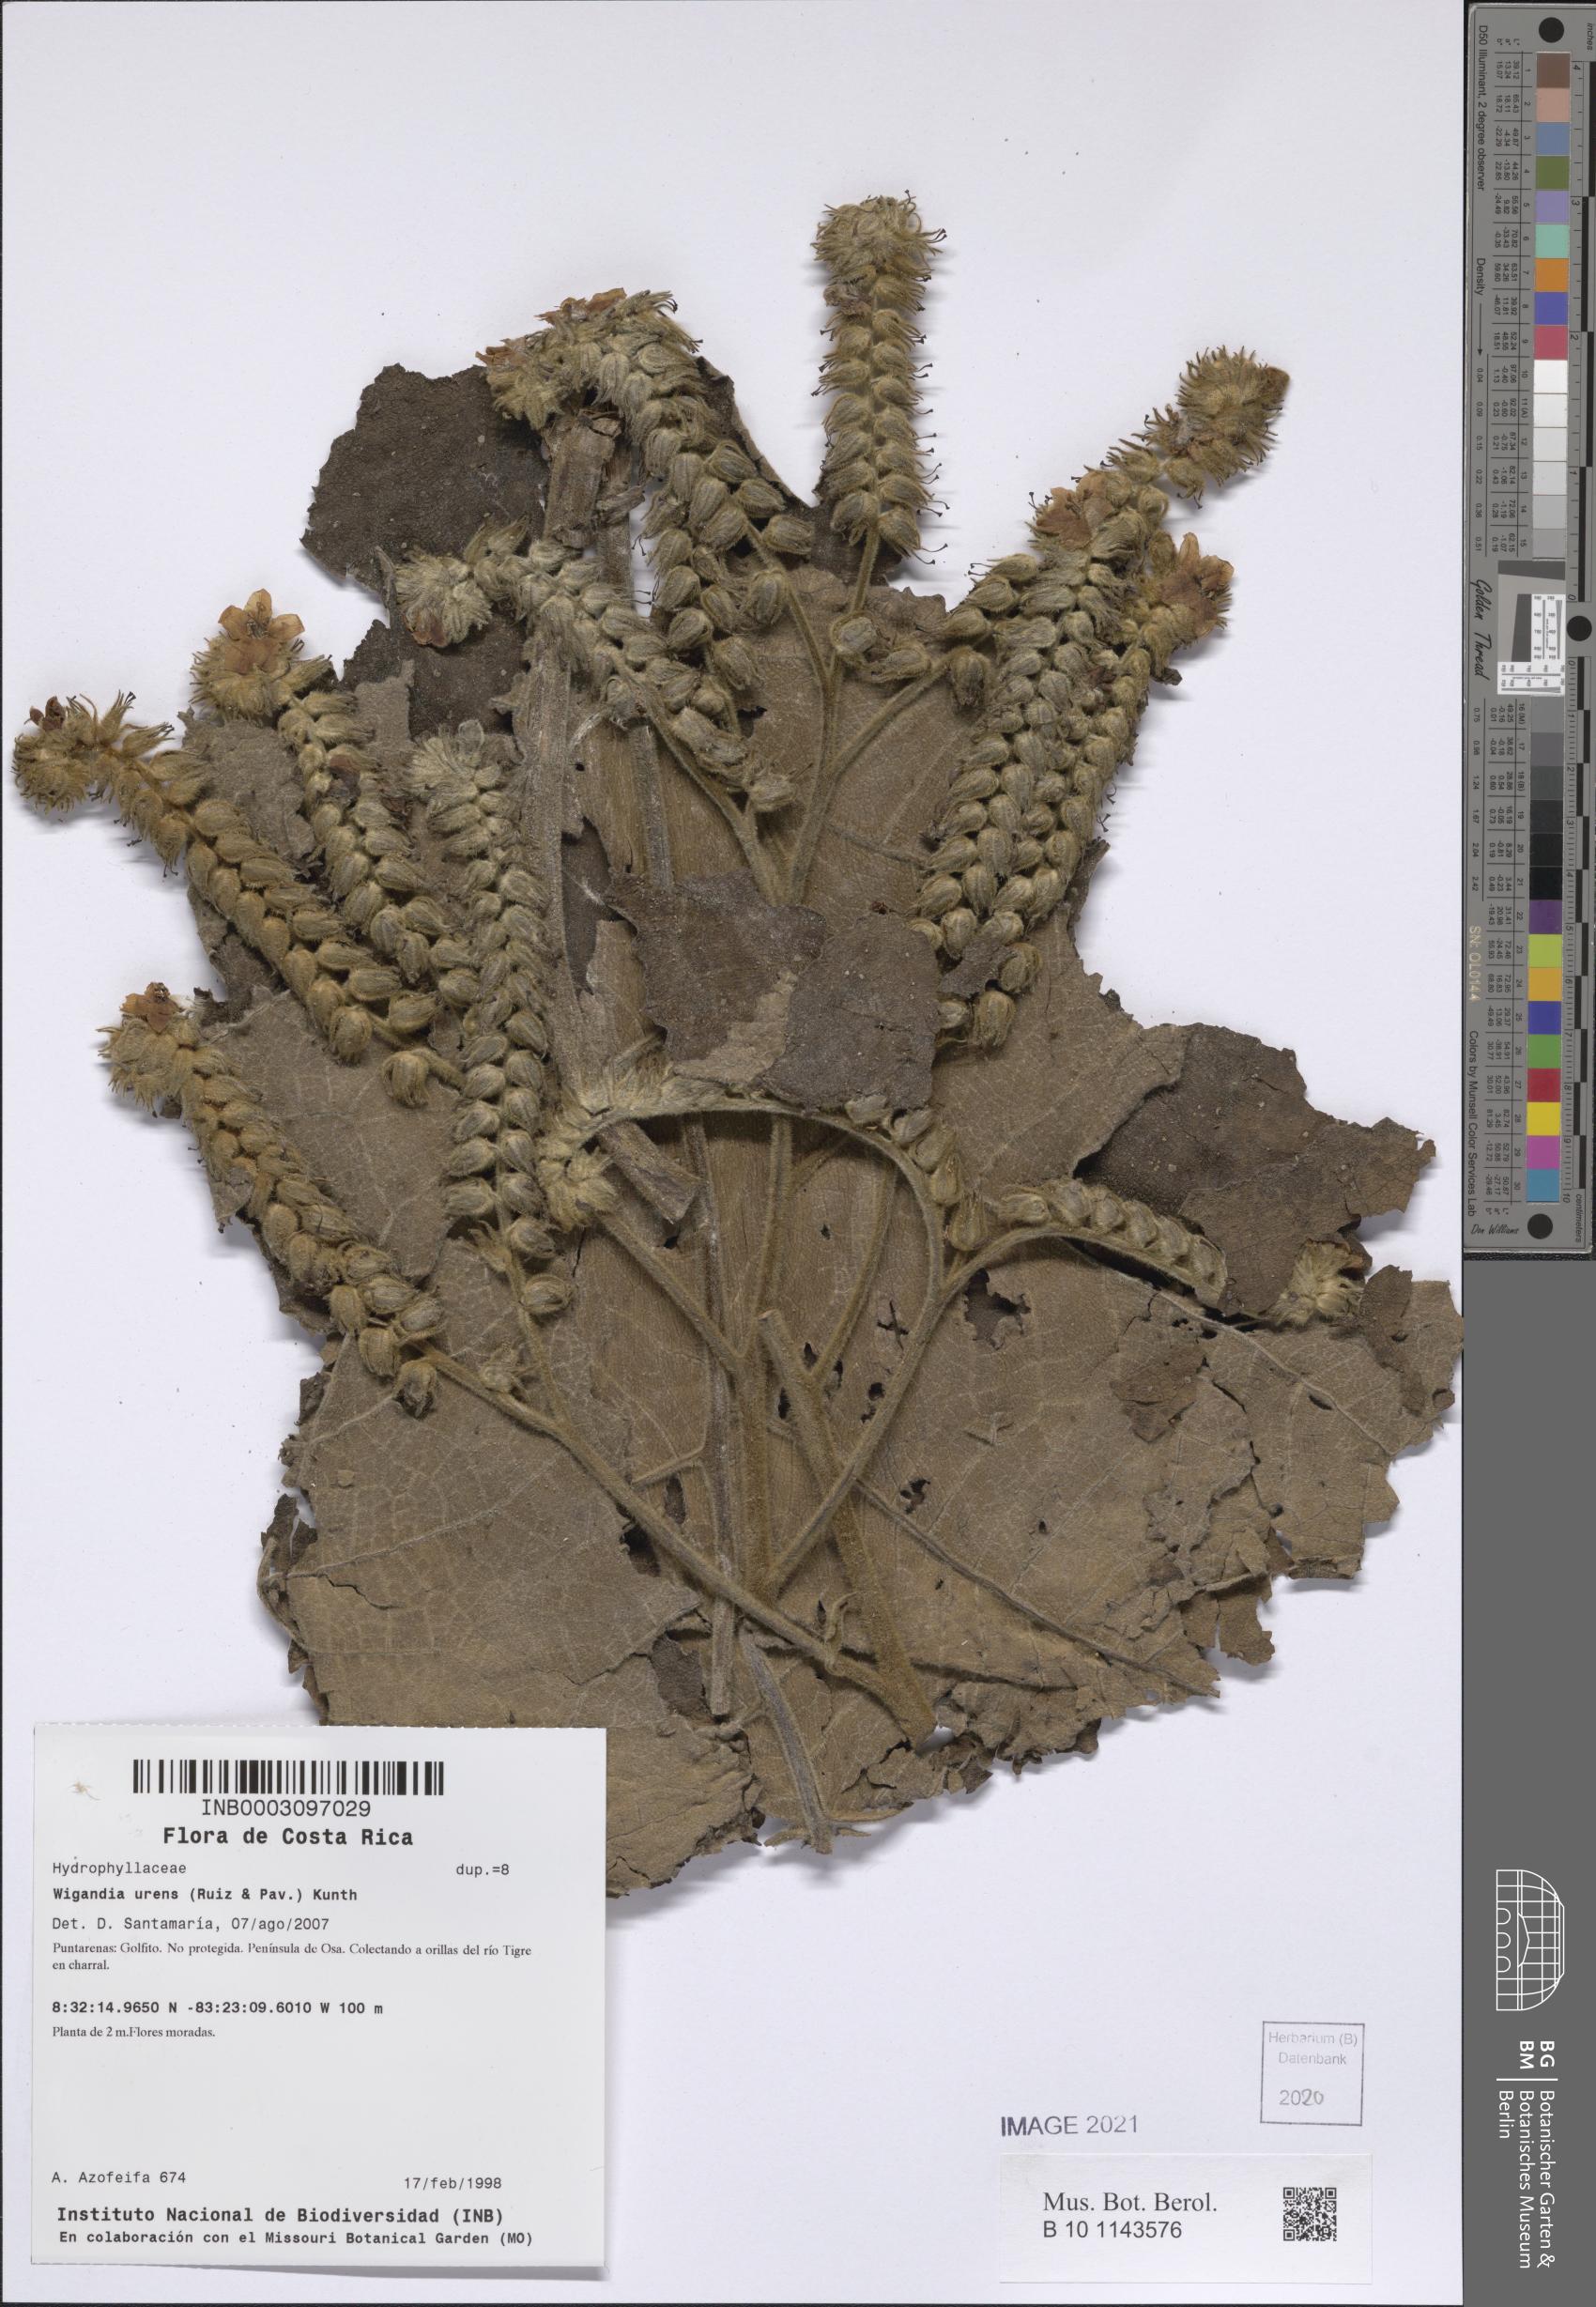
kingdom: Plantae
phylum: Tracheophyta
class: Magnoliopsida
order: Boraginales
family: Namaceae
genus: Wigandia
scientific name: Wigandia urens
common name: Caracus wigandia
